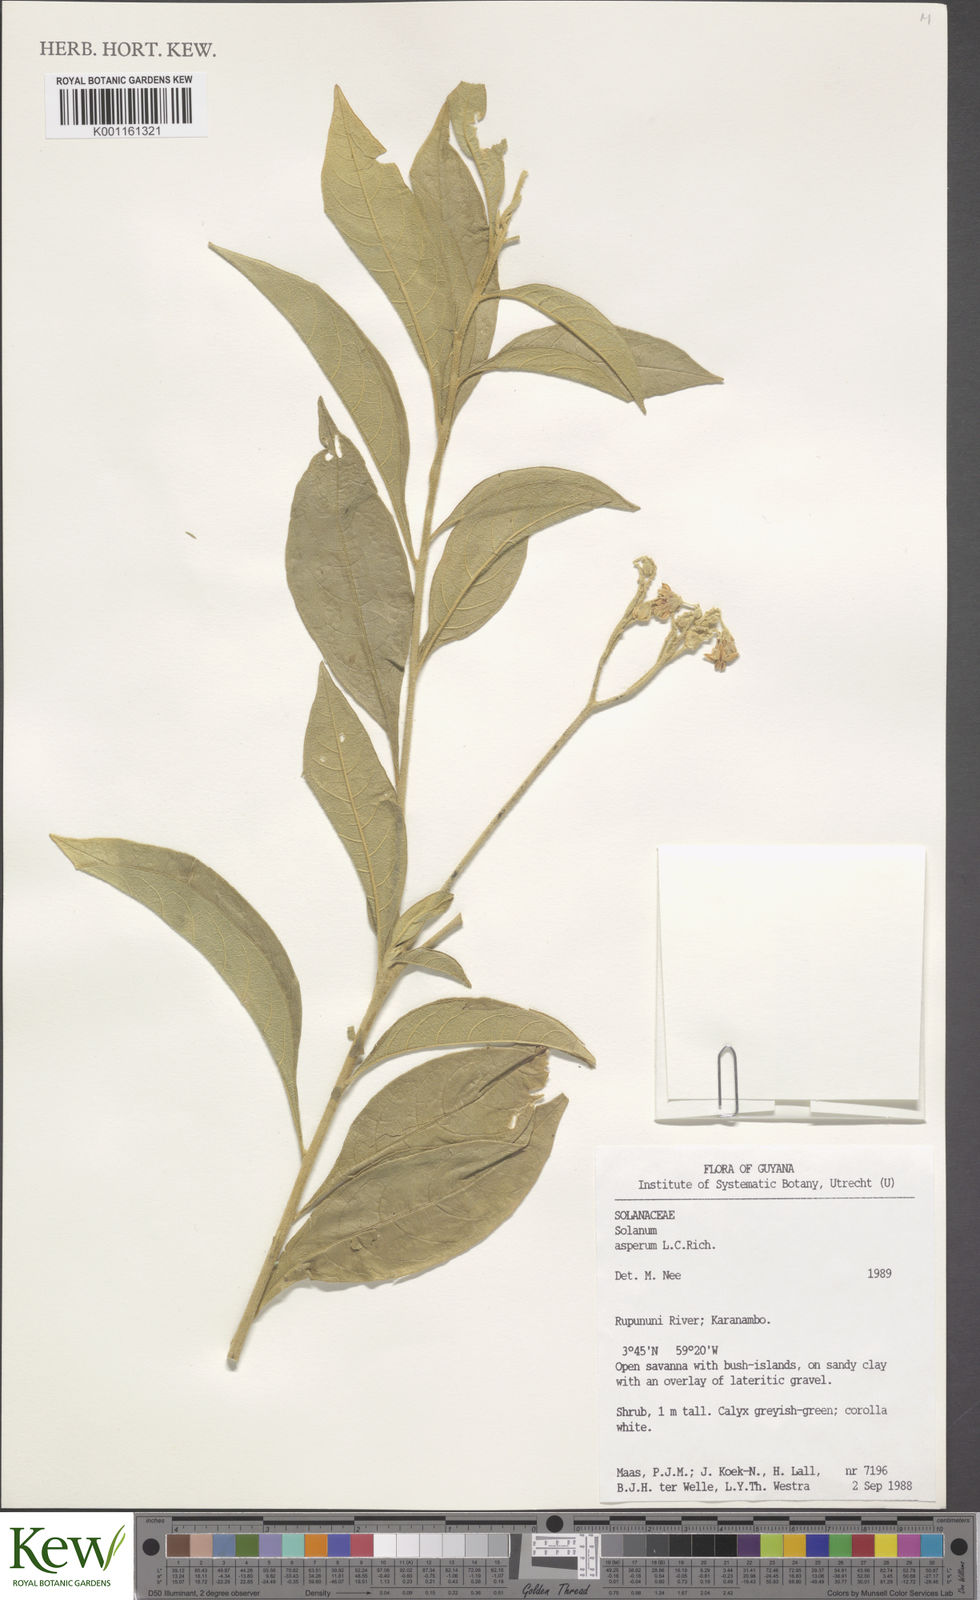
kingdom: Plantae
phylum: Tracheophyta
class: Magnoliopsida
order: Solanales
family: Solanaceae
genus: Solanum
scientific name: Solanum asperum
